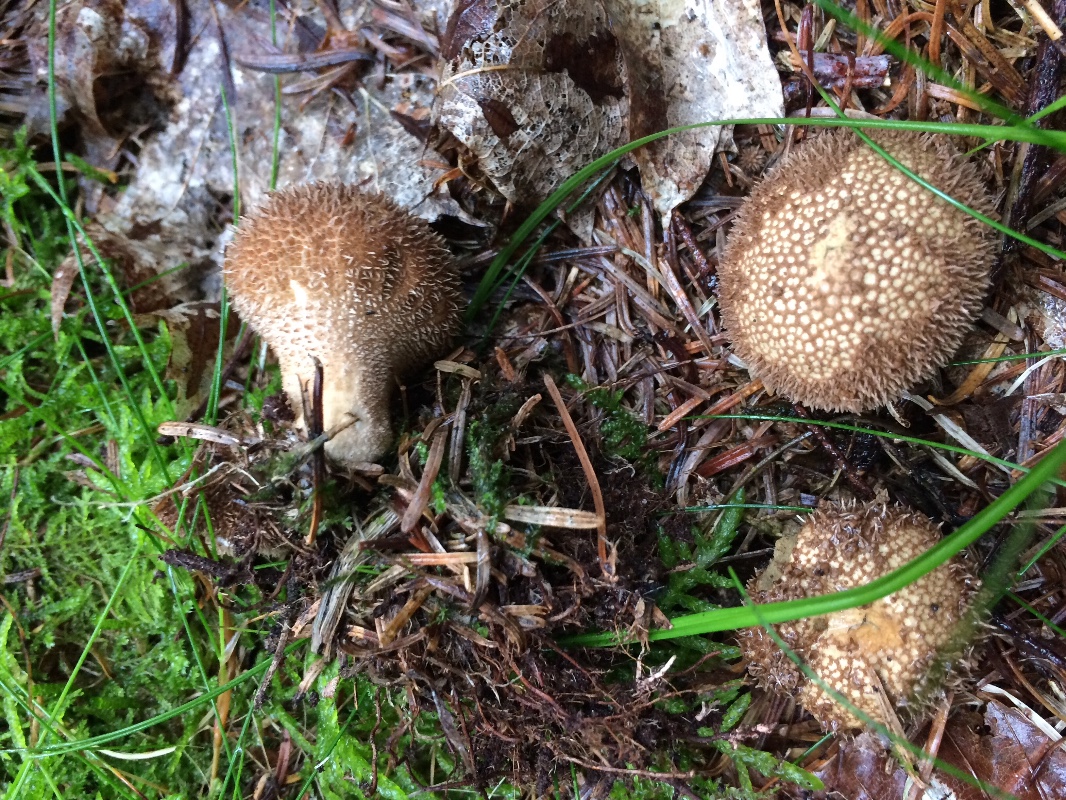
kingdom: Fungi
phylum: Basidiomycota
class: Agaricomycetes
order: Agaricales
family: Lycoperdaceae
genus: Lycoperdon
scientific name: Lycoperdon nigrescens
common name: sortagtig støvbold
